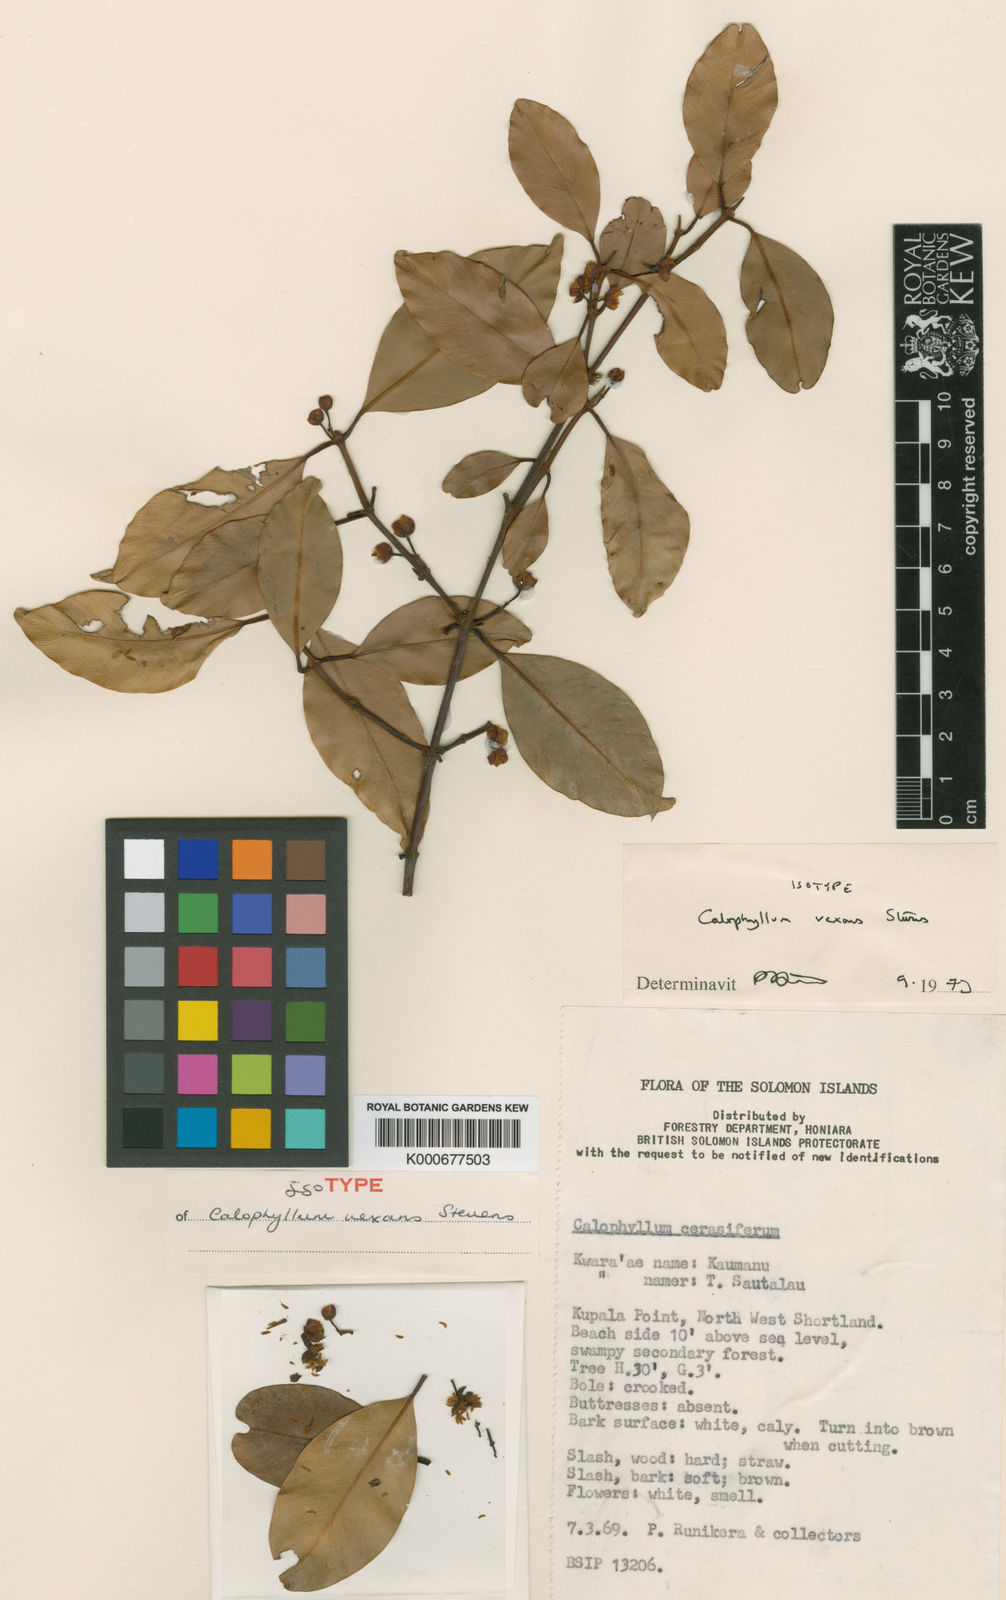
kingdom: Plantae
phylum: Tracheophyta
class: Magnoliopsida
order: Malpighiales
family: Calophyllaceae
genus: Calophyllum
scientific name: Calophyllum vexans
